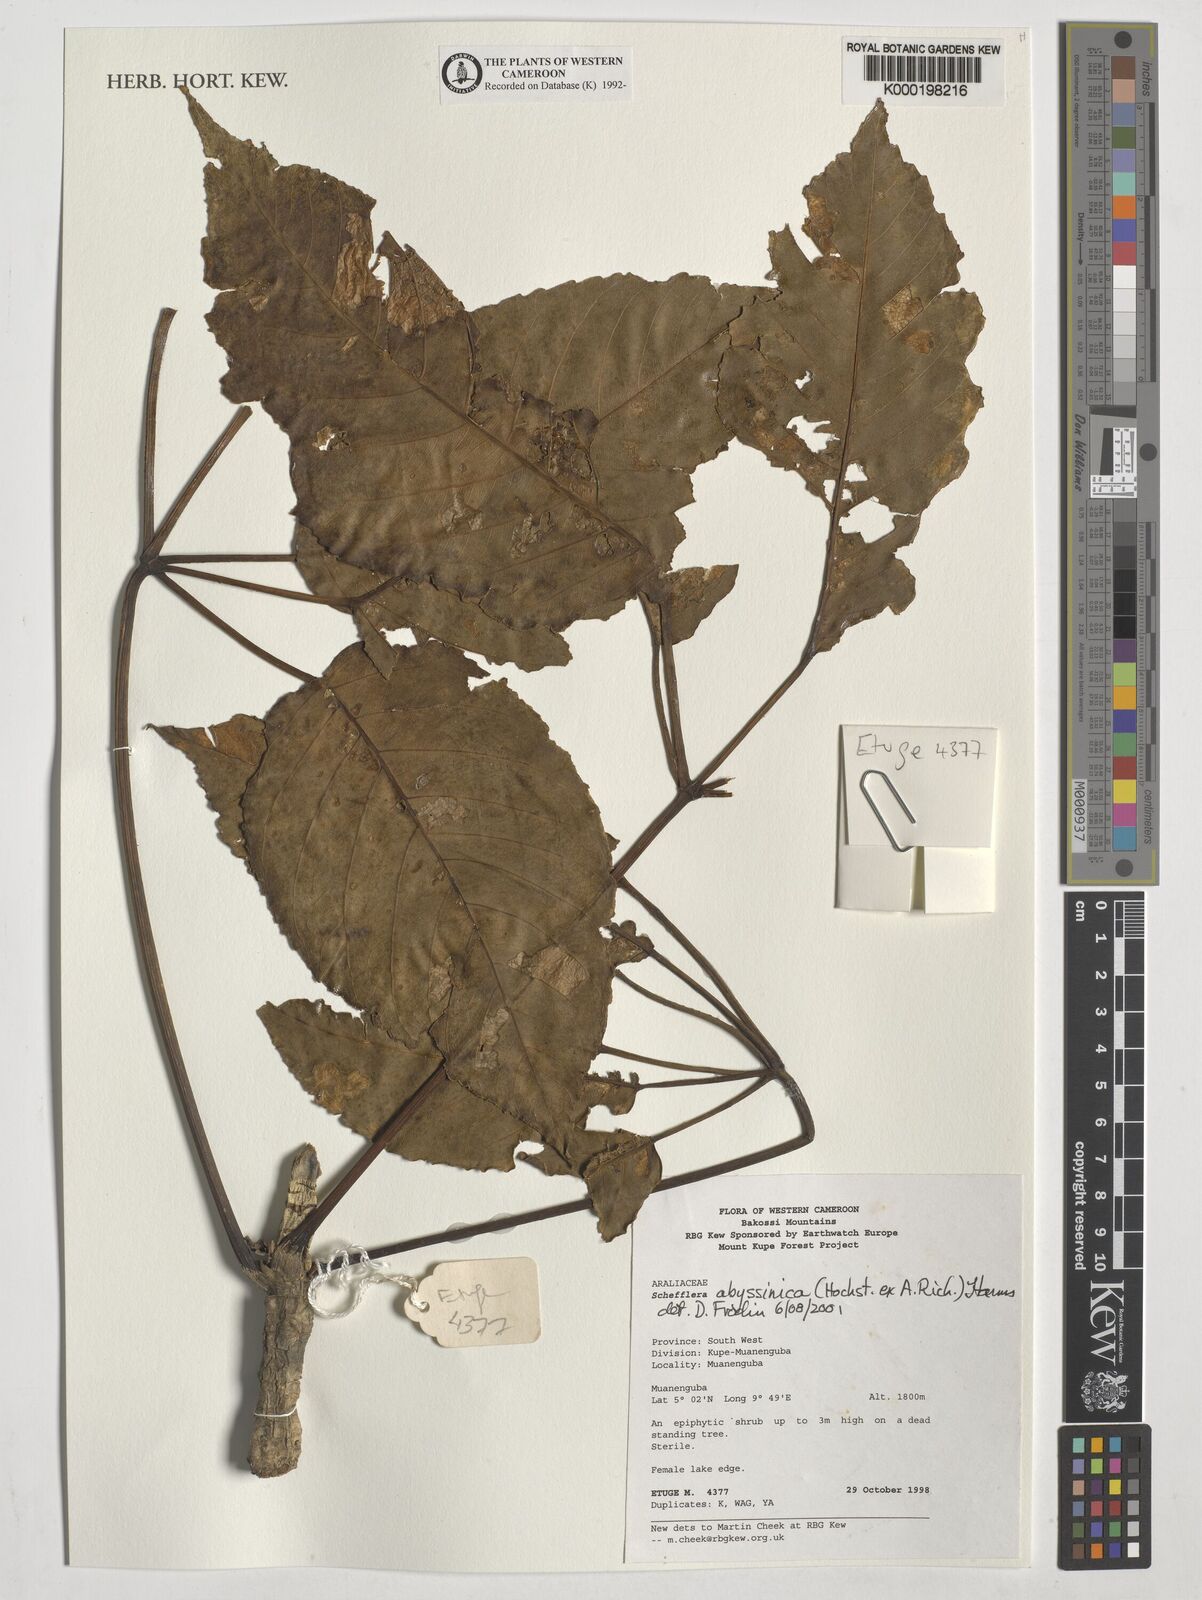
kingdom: Plantae
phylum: Tracheophyta
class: Magnoliopsida
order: Apiales
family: Araliaceae
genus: Astropanax
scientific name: Astropanax abyssinicum
